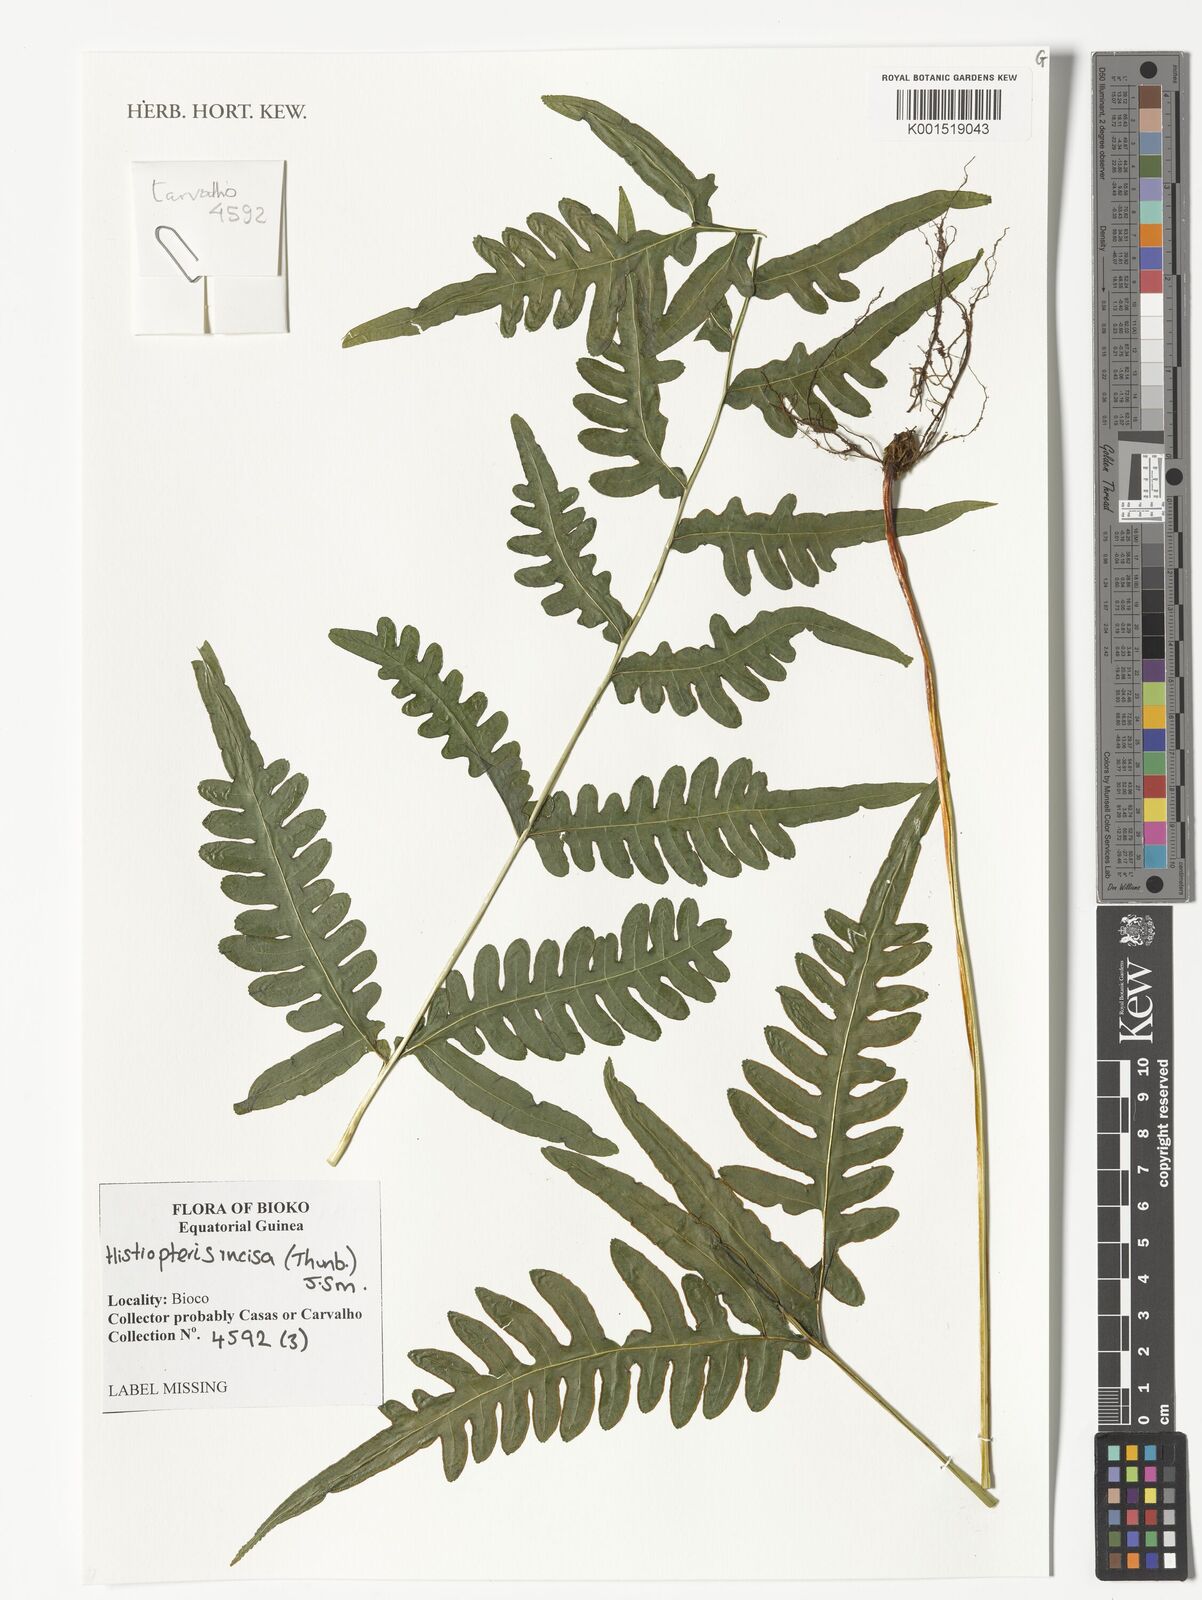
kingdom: Plantae
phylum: Tracheophyta
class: Polypodiopsida
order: Polypodiales
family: Dennstaedtiaceae
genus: Histiopteris
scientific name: Histiopteris incisa
